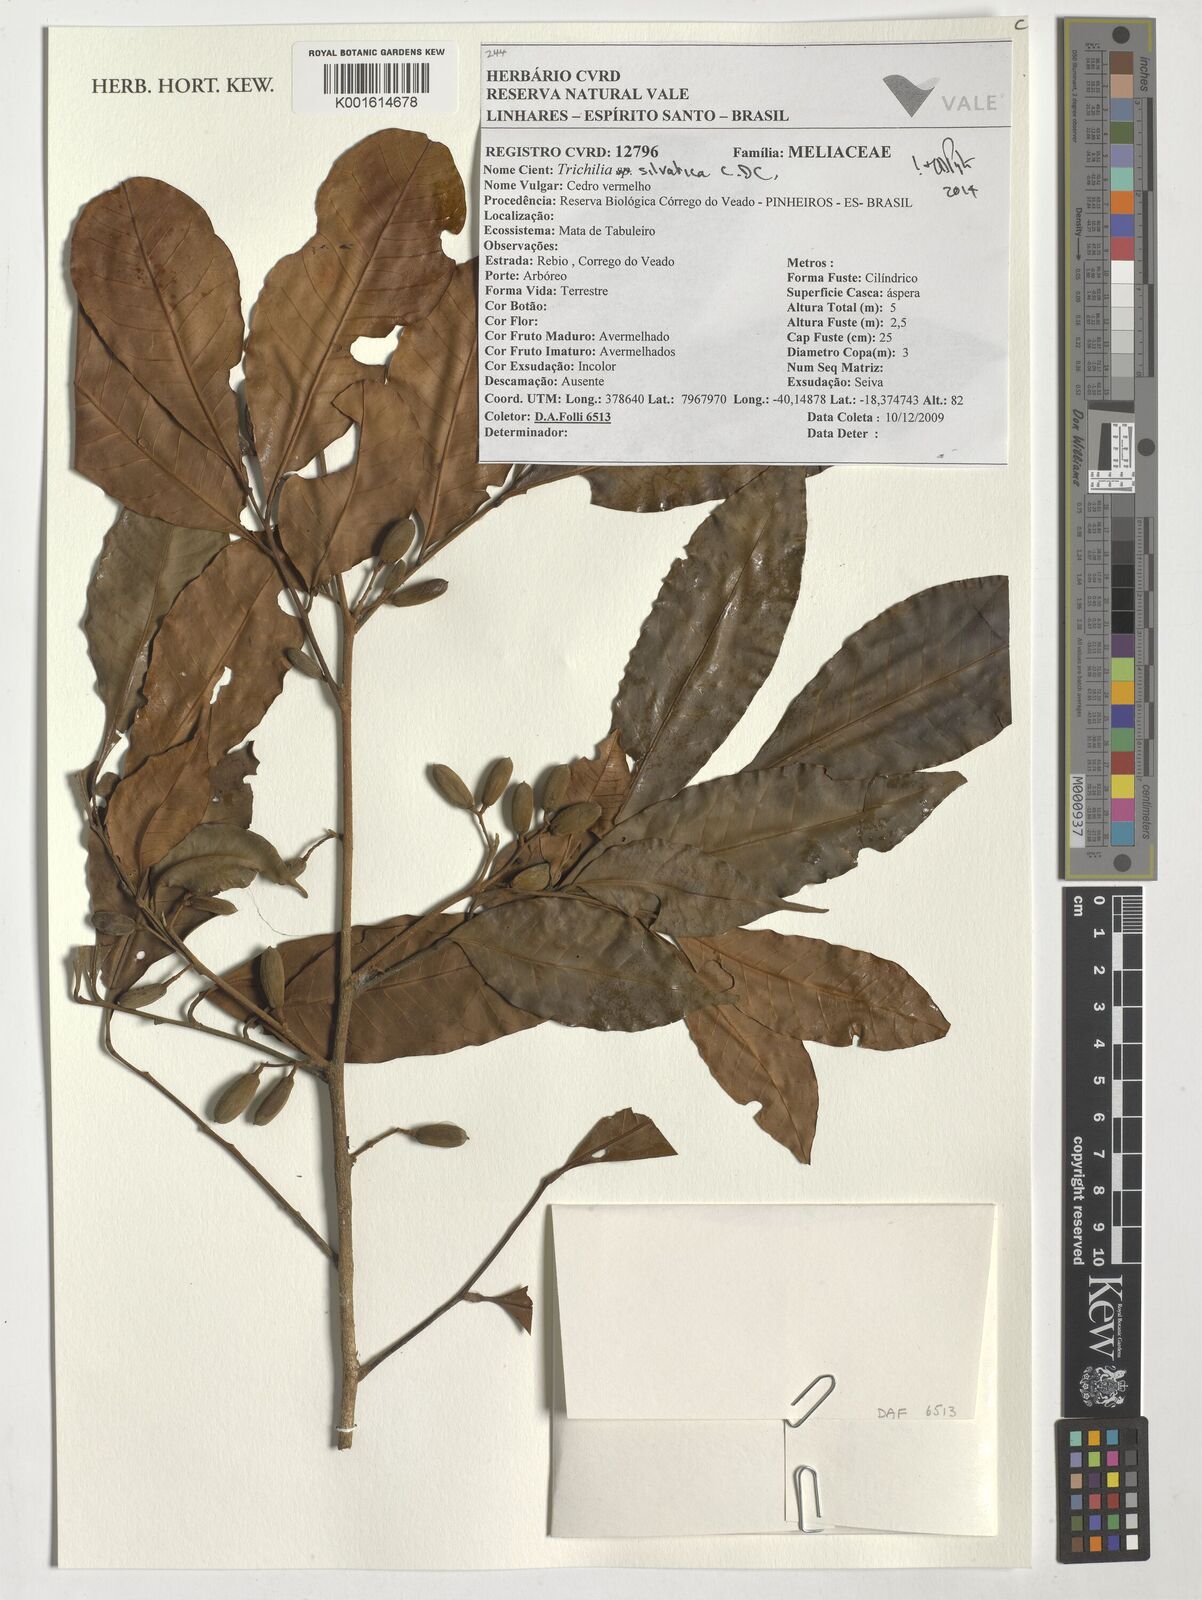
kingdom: Plantae
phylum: Tracheophyta
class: Magnoliopsida
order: Sapindales
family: Meliaceae
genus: Trichilia
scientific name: Trichilia silvatica
